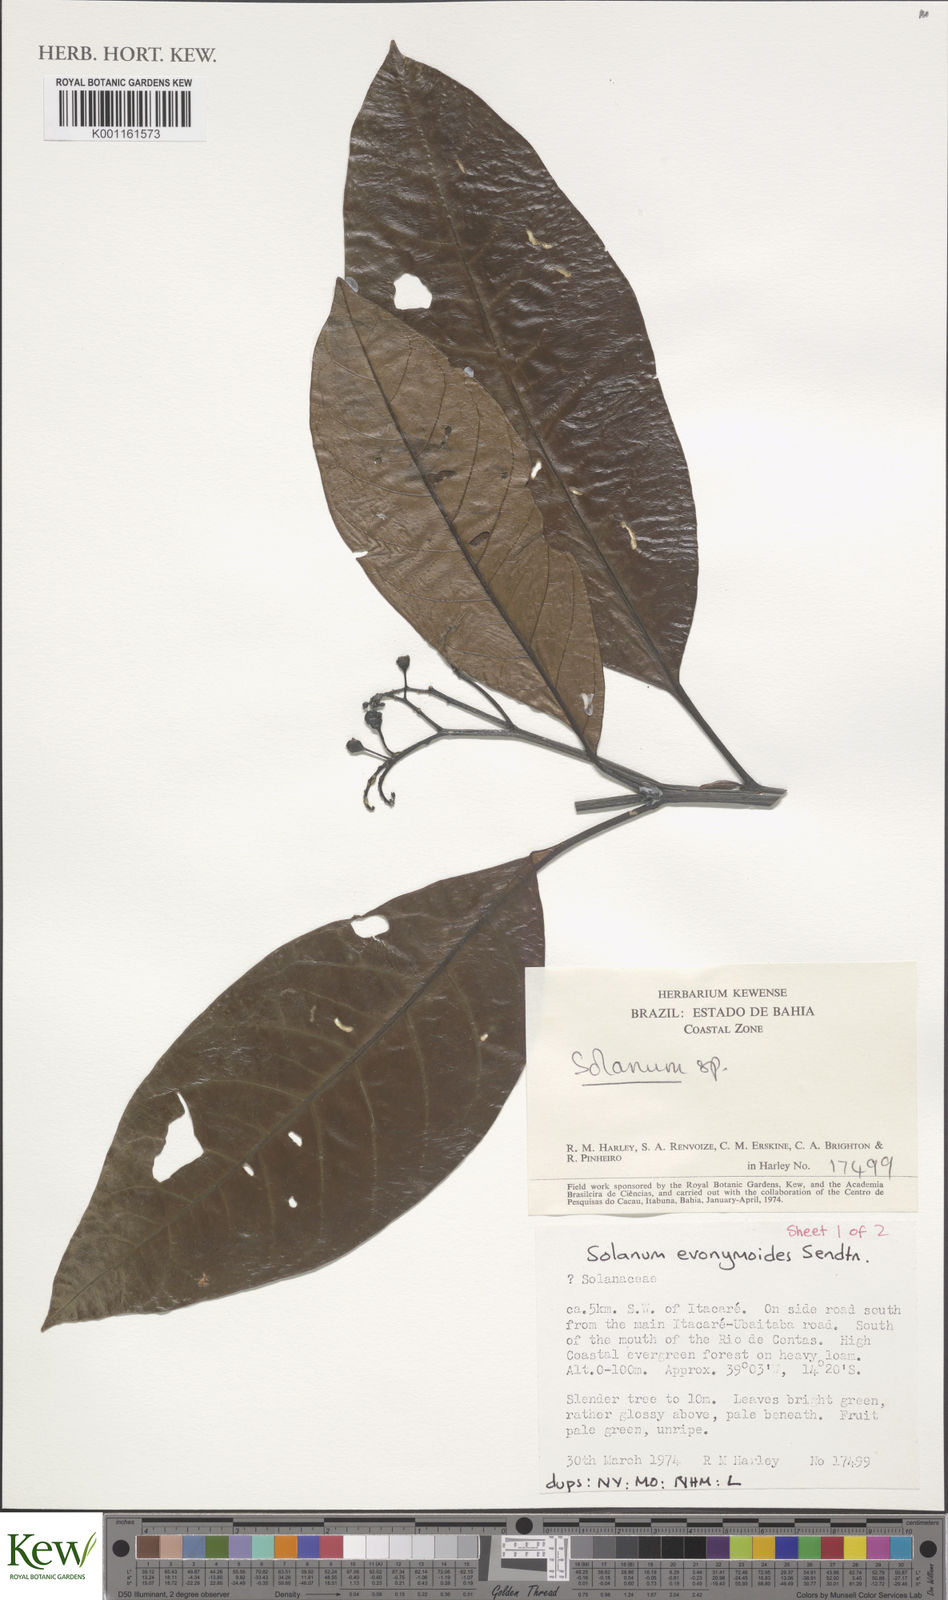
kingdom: Plantae
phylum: Tracheophyta
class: Magnoliopsida
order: Solanales
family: Solanaceae
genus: Solanum
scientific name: Solanum evonymoides
